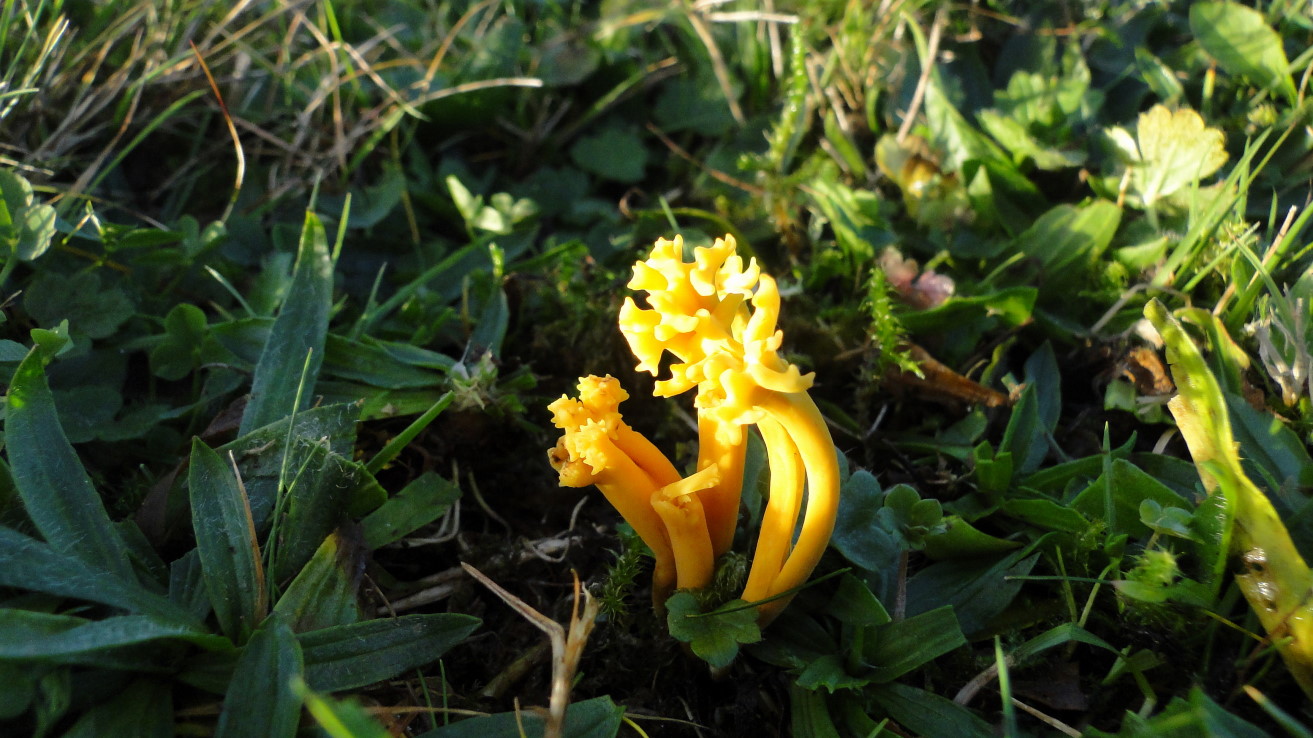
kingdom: Fungi
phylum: Basidiomycota
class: Agaricomycetes
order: Agaricales
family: Clavariaceae
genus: Clavulinopsis
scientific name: Clavulinopsis corniculata
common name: eng-køllesvamp
